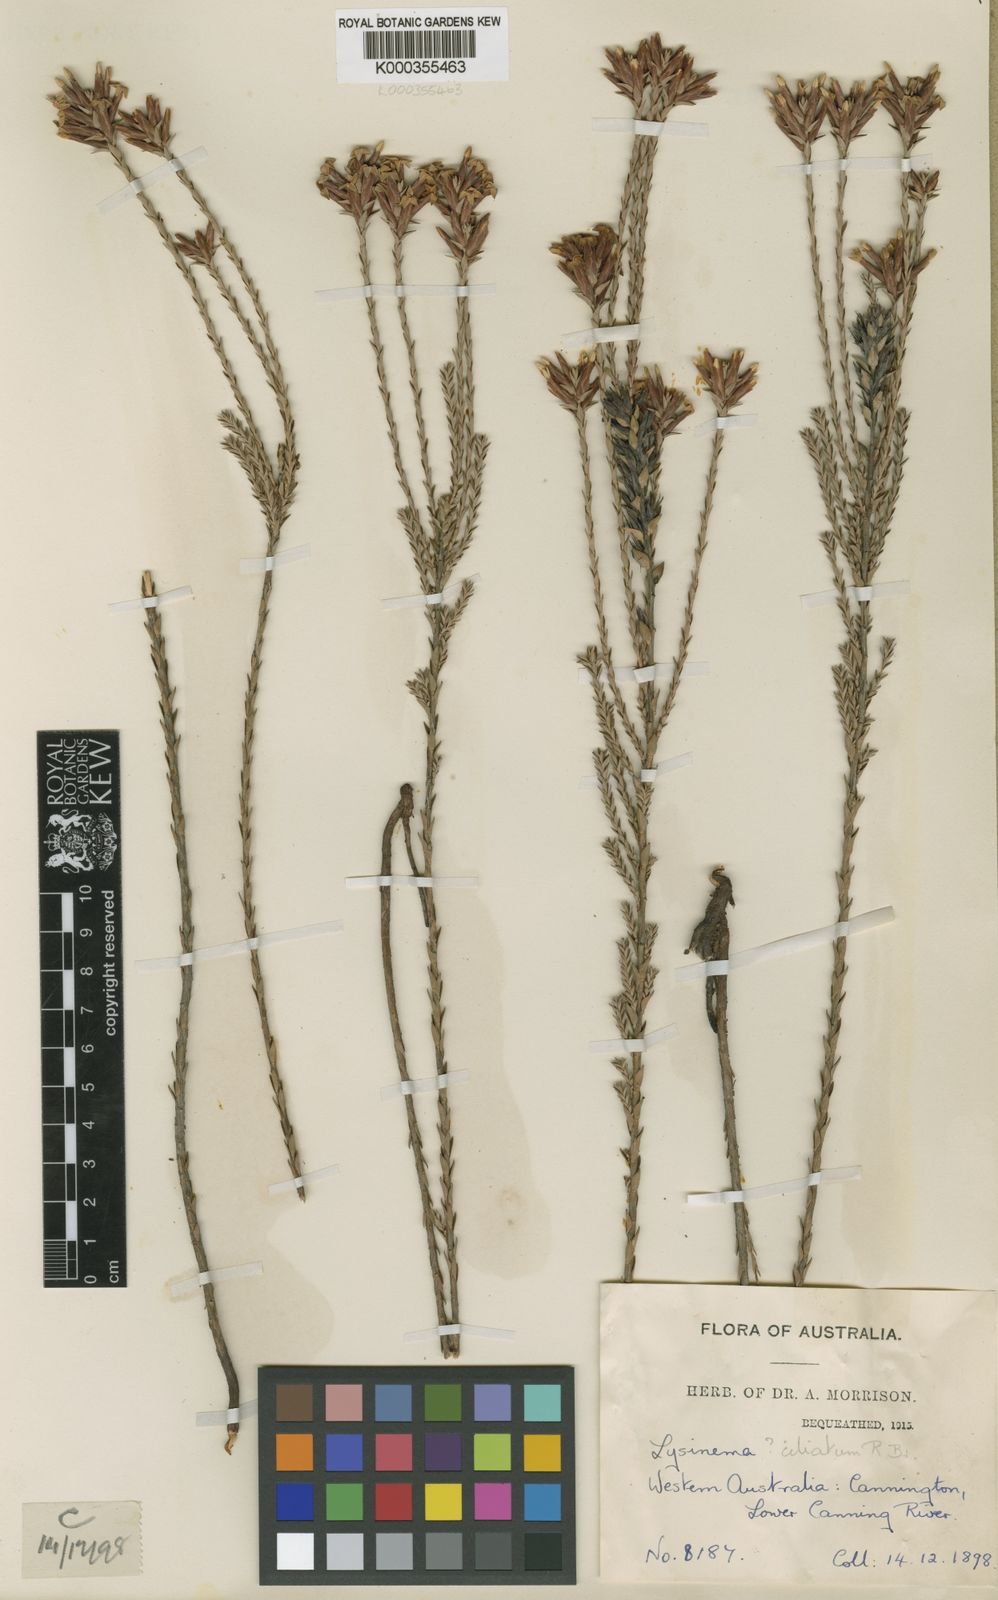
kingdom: Plantae
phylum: Tracheophyta
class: Magnoliopsida
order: Ericales
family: Ericaceae
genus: Lysinema
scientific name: Lysinema ciliatum
